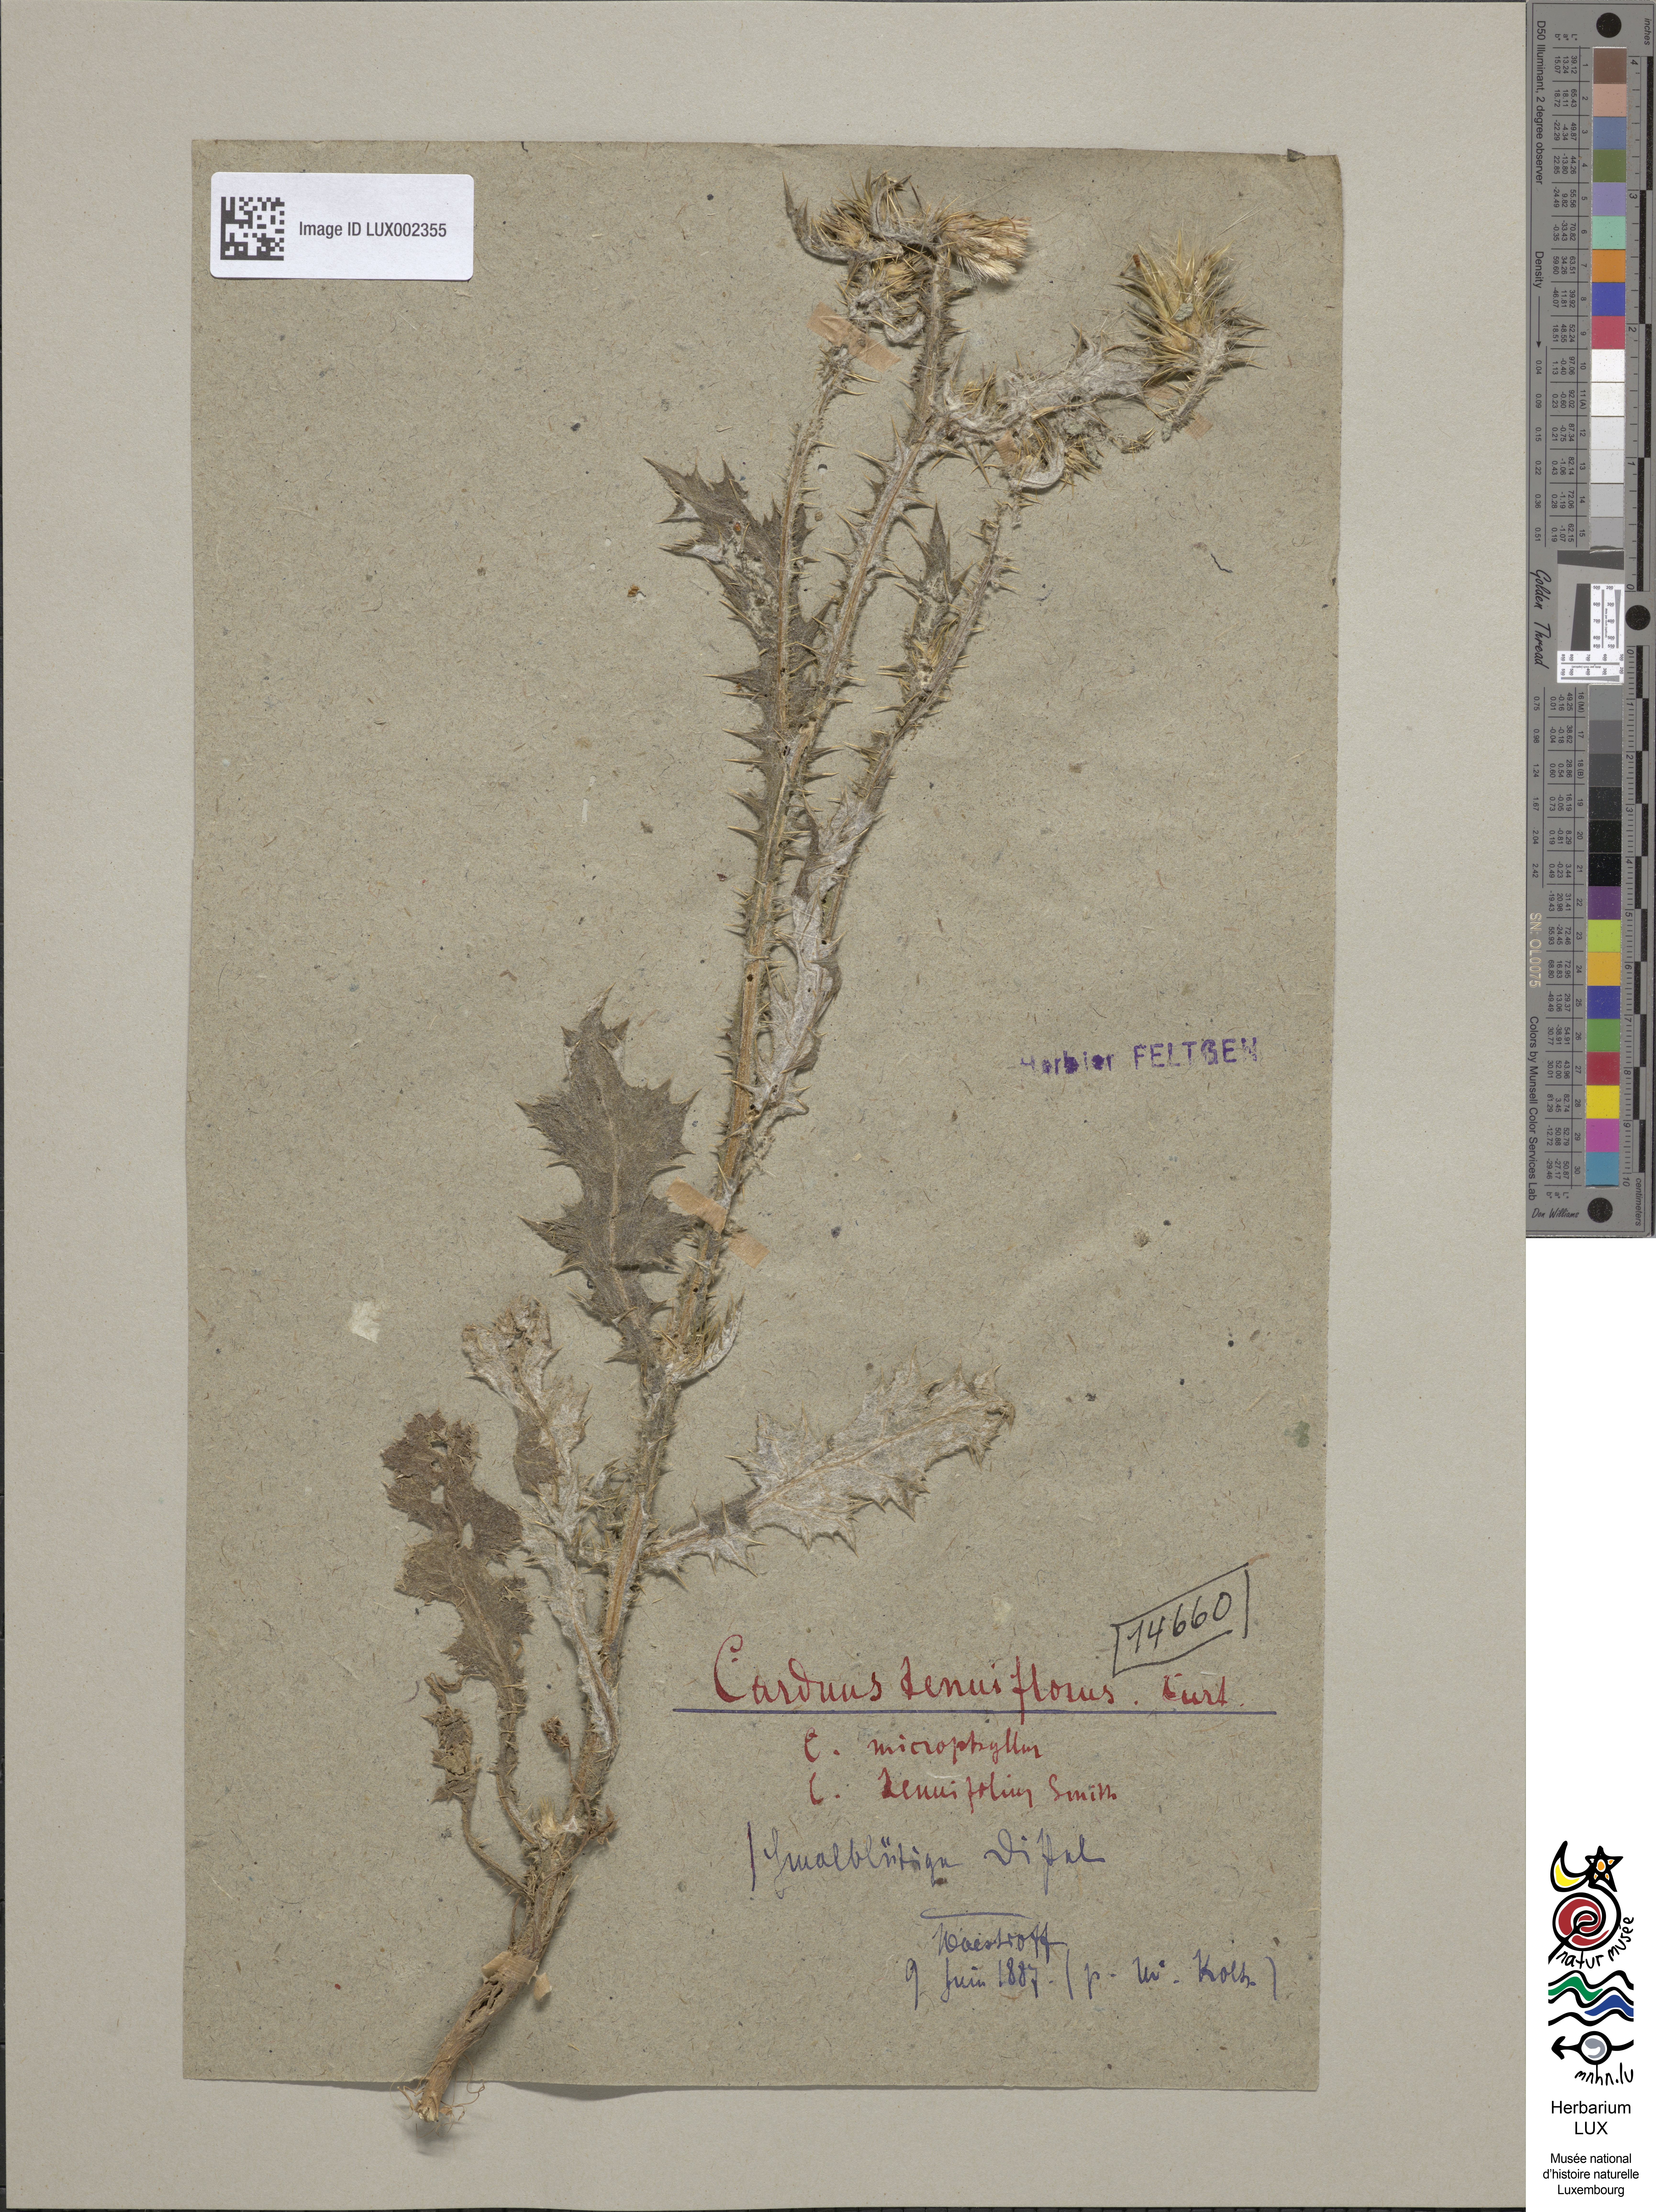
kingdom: Plantae
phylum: Tracheophyta
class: Magnoliopsida
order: Asterales
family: Asteraceae
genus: Carduus
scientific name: Carduus tenuiflorus
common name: Slender thistle
